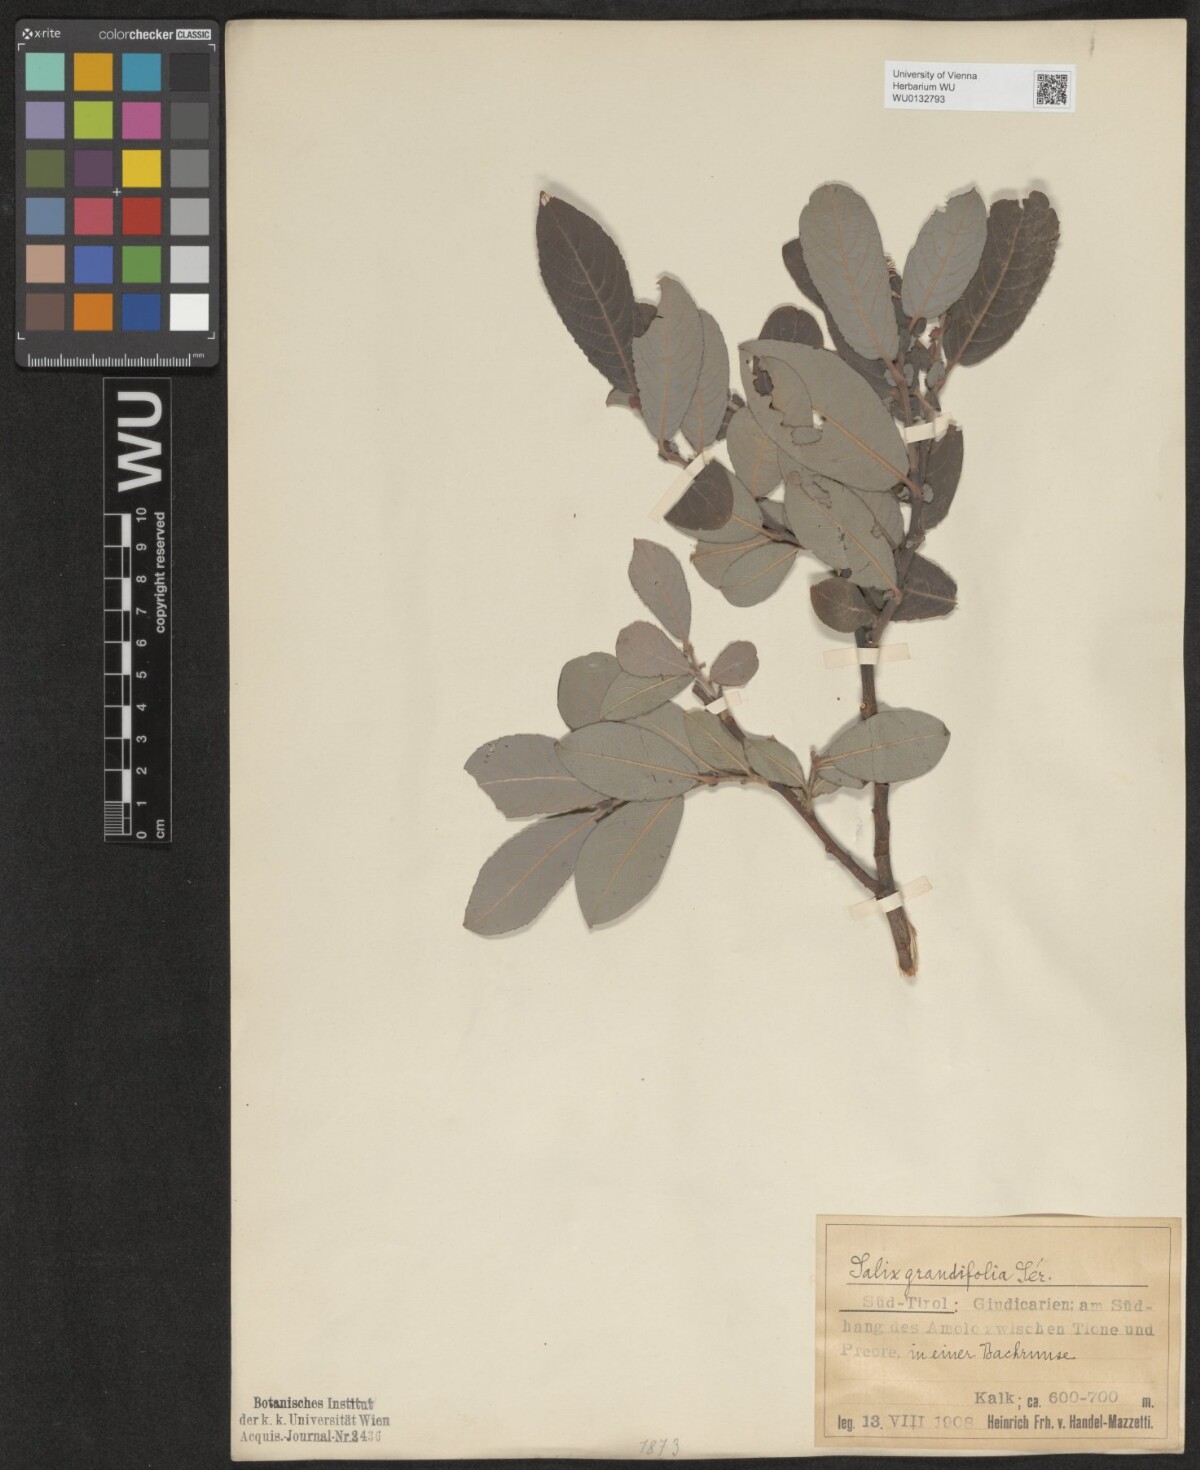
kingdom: Plantae
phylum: Tracheophyta
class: Magnoliopsida
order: Malpighiales
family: Salicaceae
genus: Salix
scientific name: Salix appendiculata
